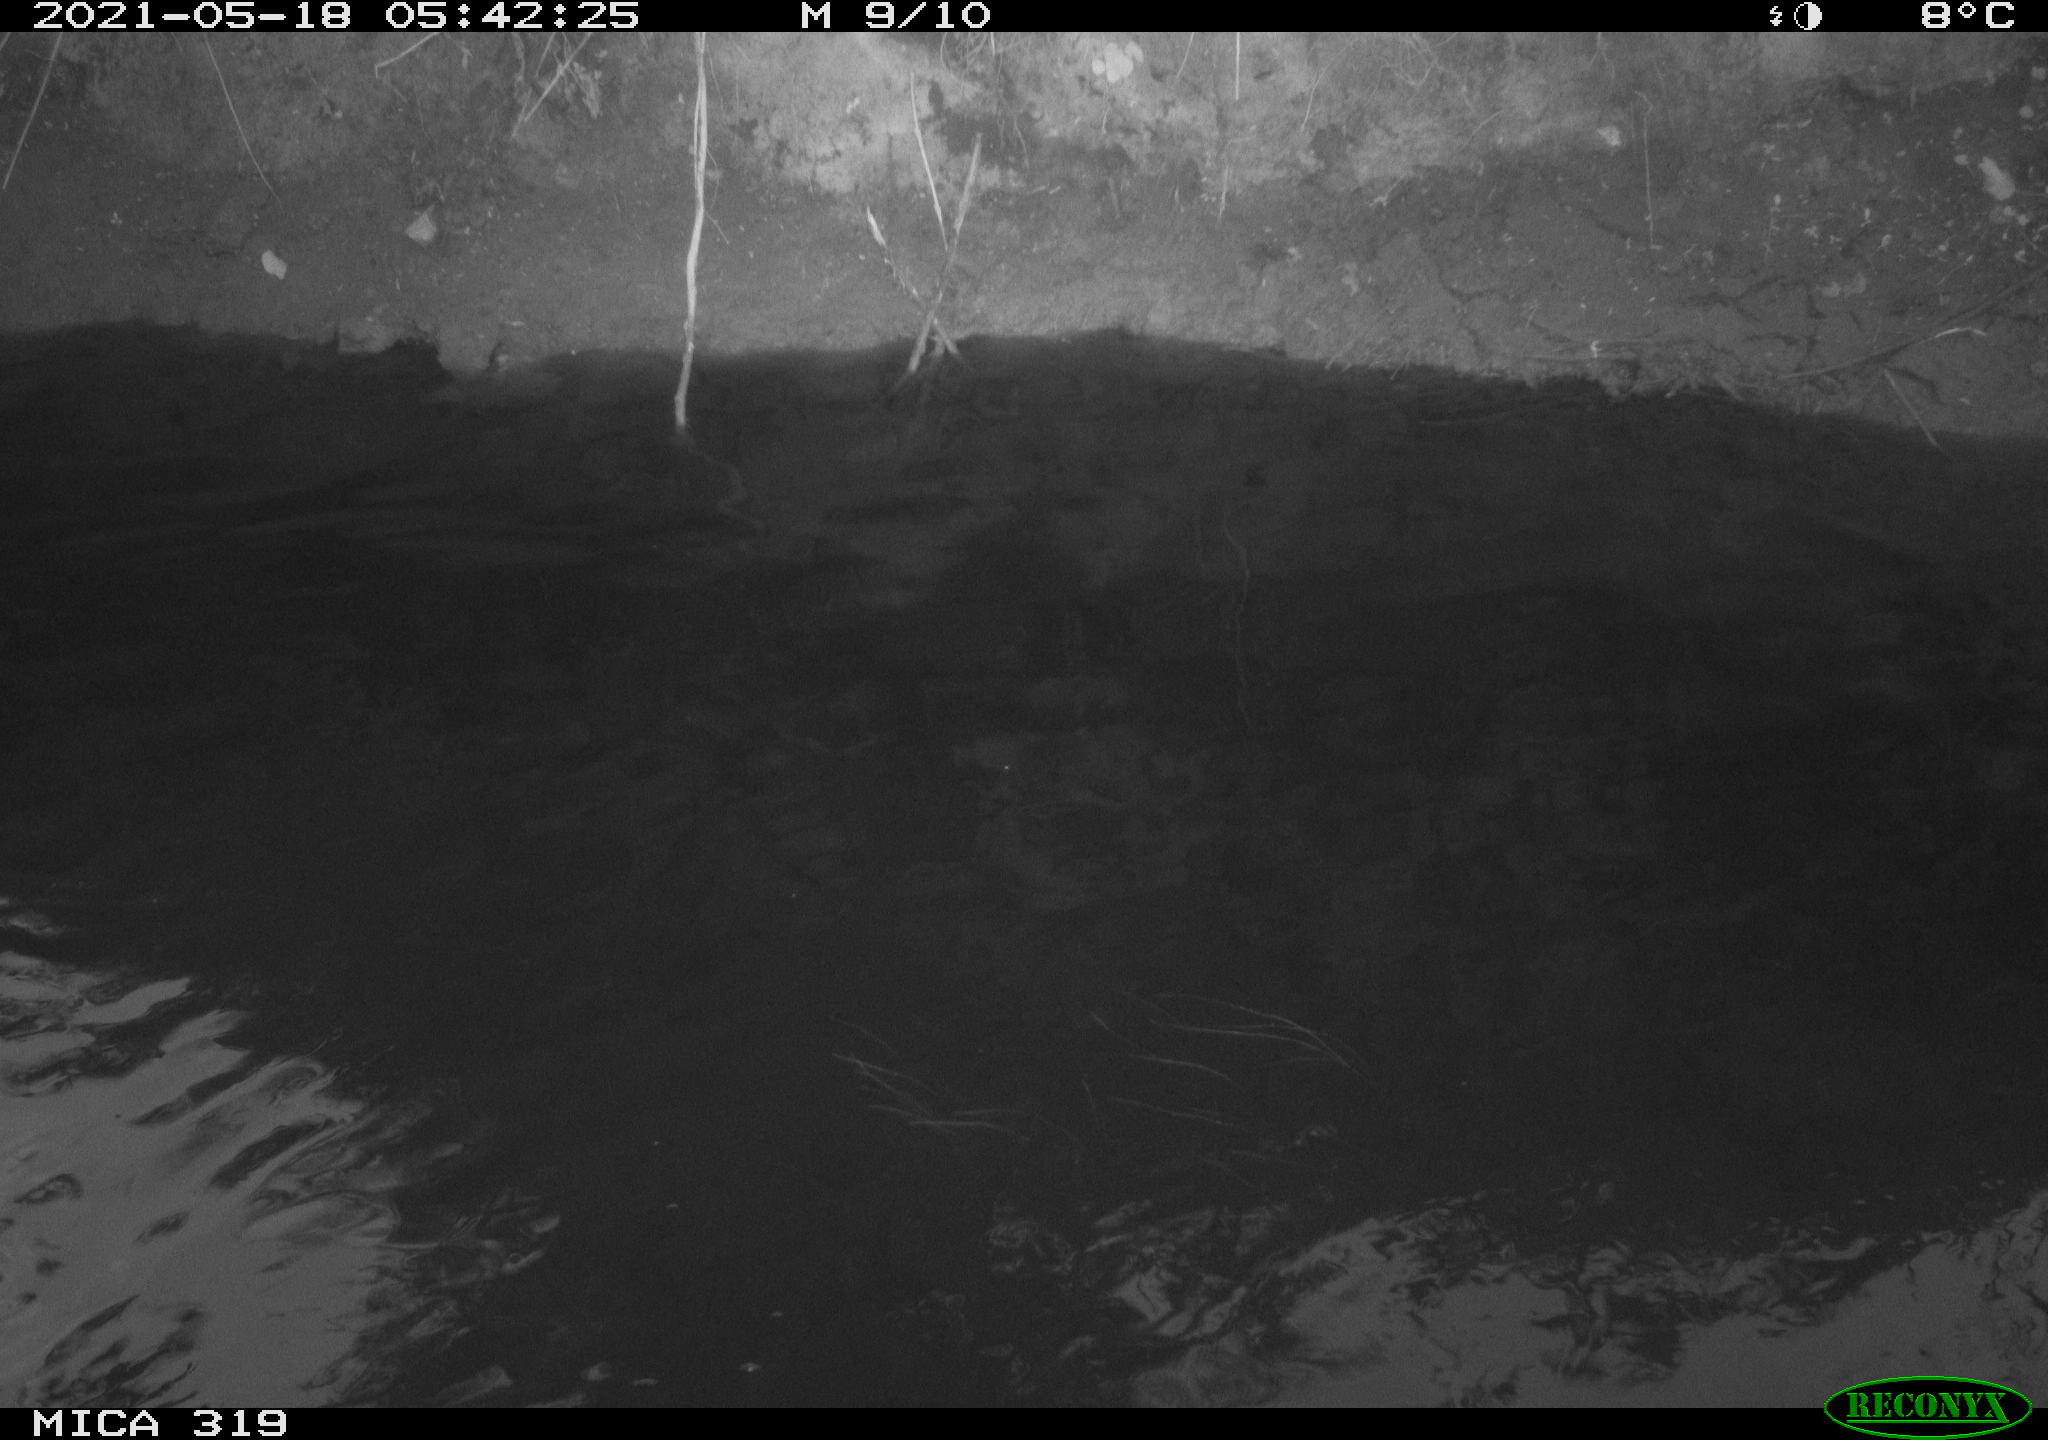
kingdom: Animalia
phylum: Chordata
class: Aves
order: Anseriformes
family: Anatidae
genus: Anas
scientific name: Anas platyrhynchos
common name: Mallard
